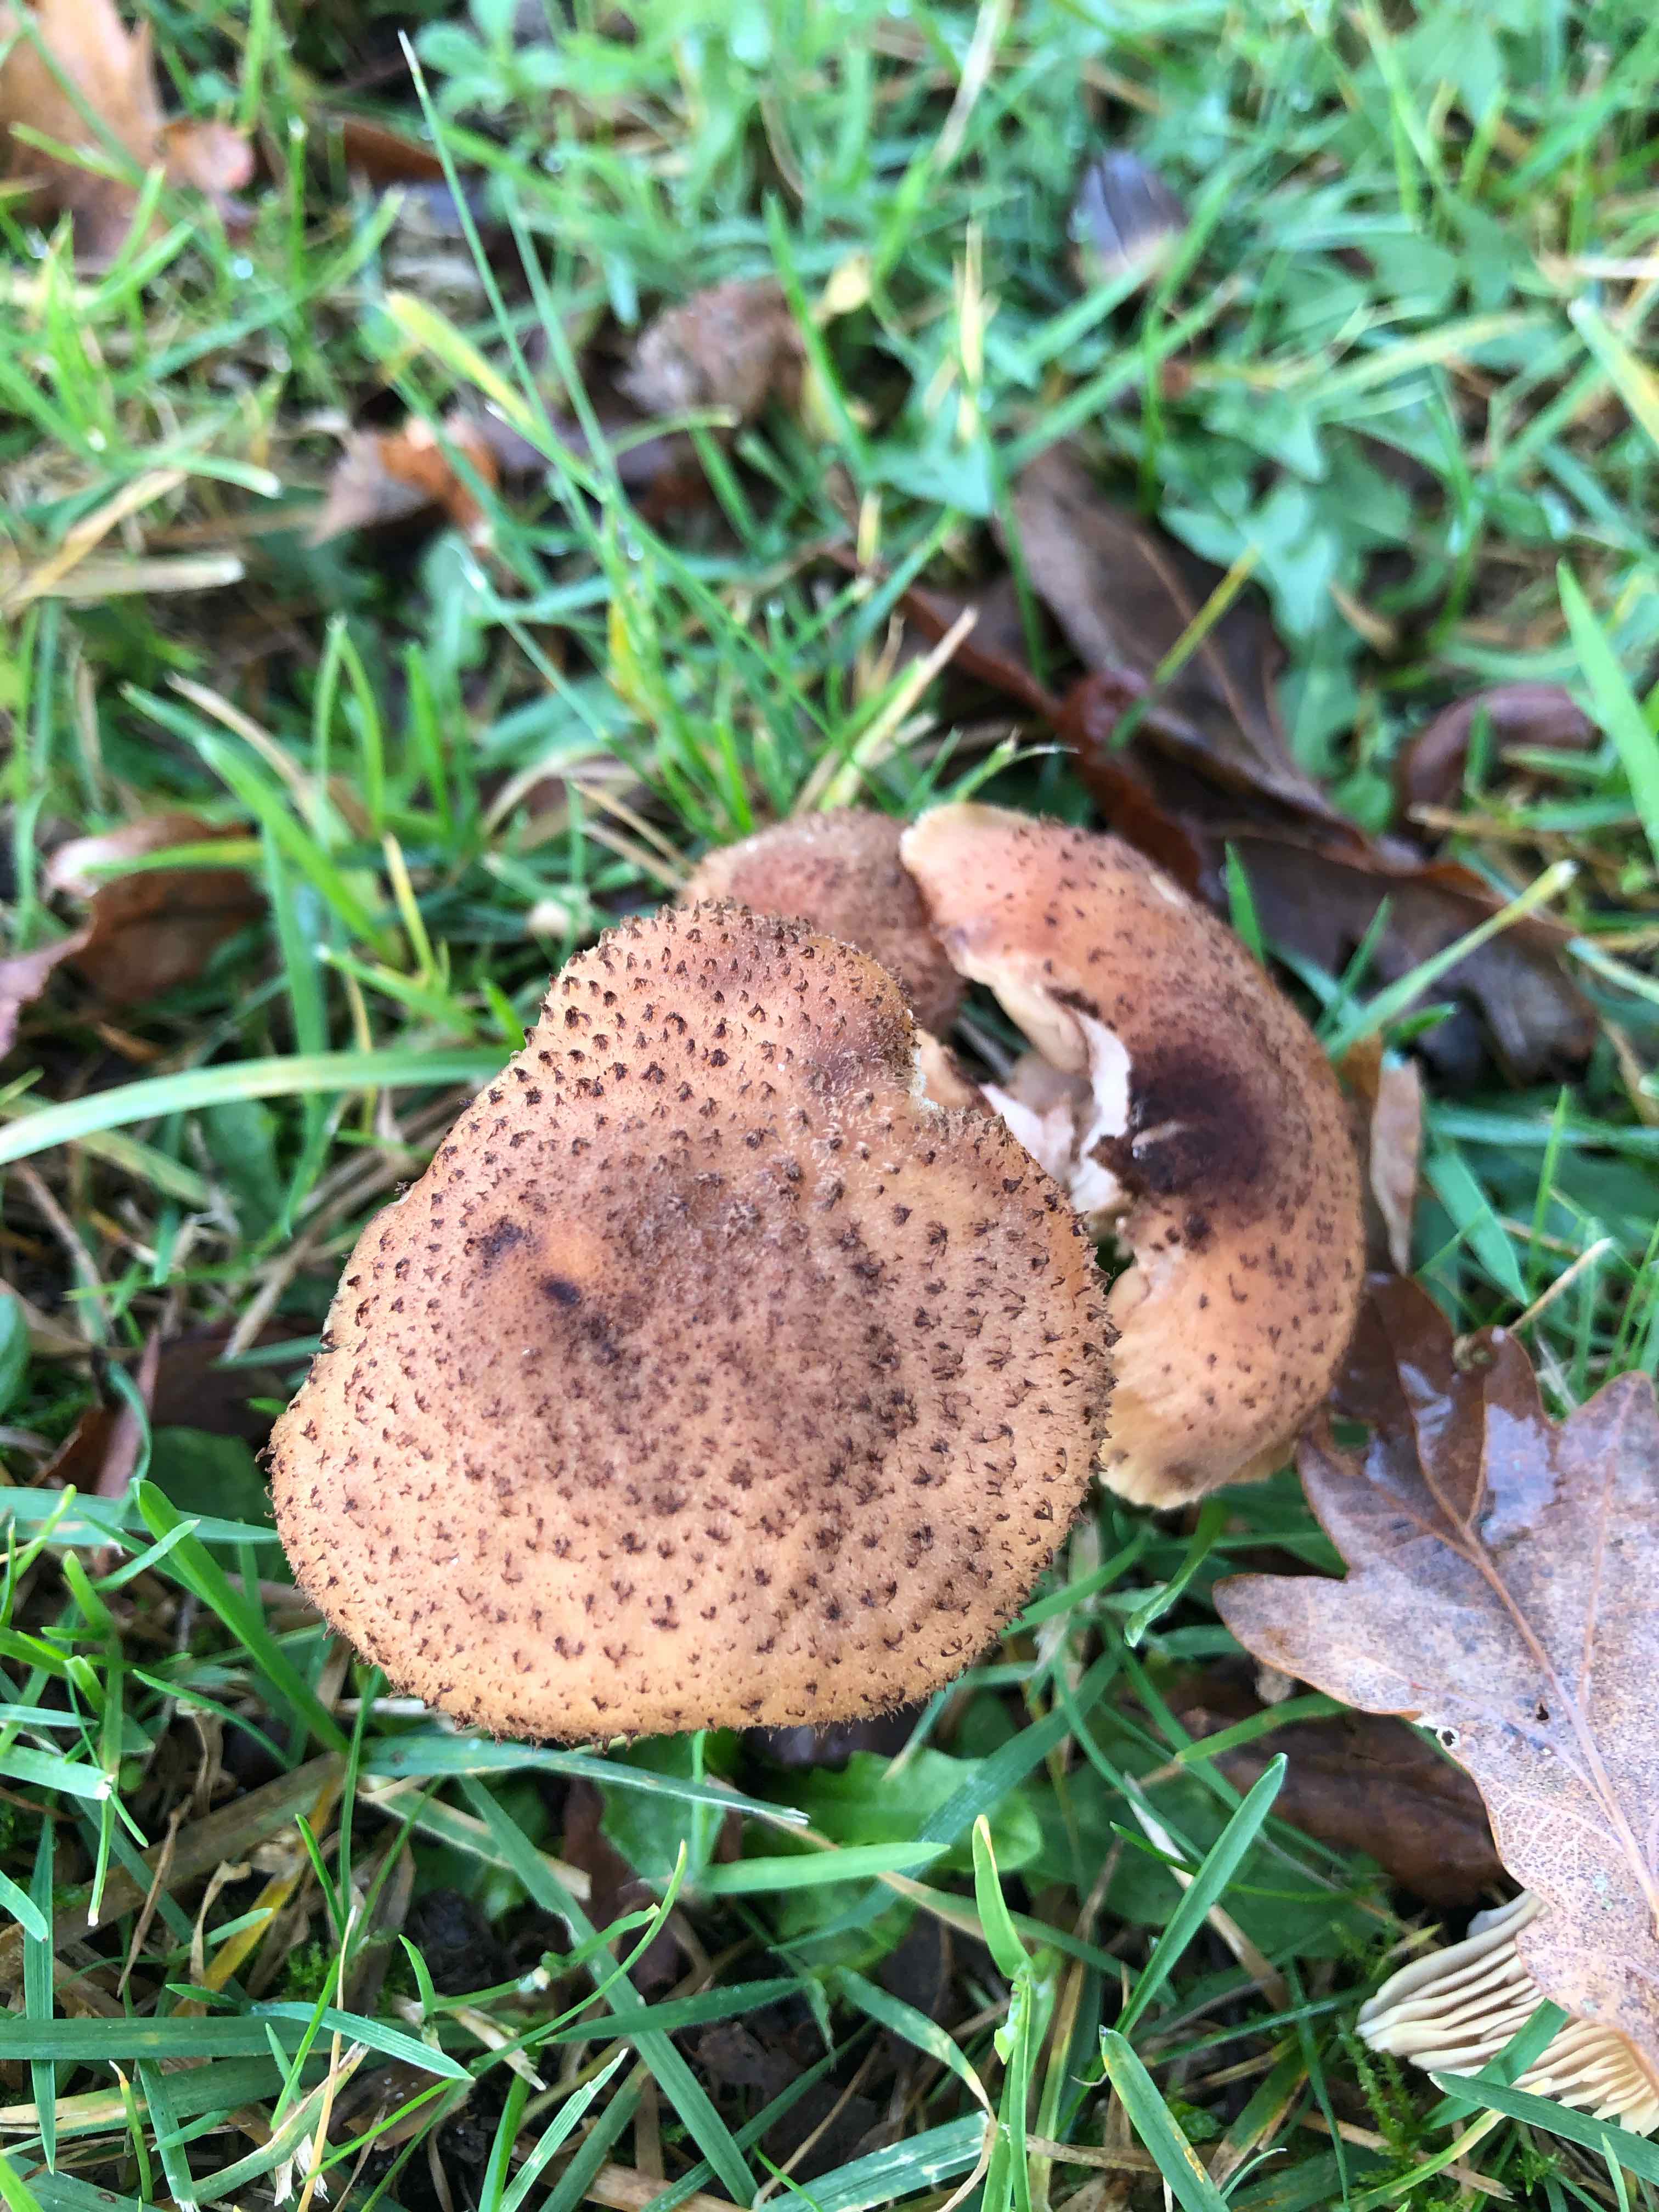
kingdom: Fungi
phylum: Basidiomycota
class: Agaricomycetes
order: Agaricales
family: Physalacriaceae
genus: Armillaria
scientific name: Armillaria ostoyae
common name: mørk honningsvamp
